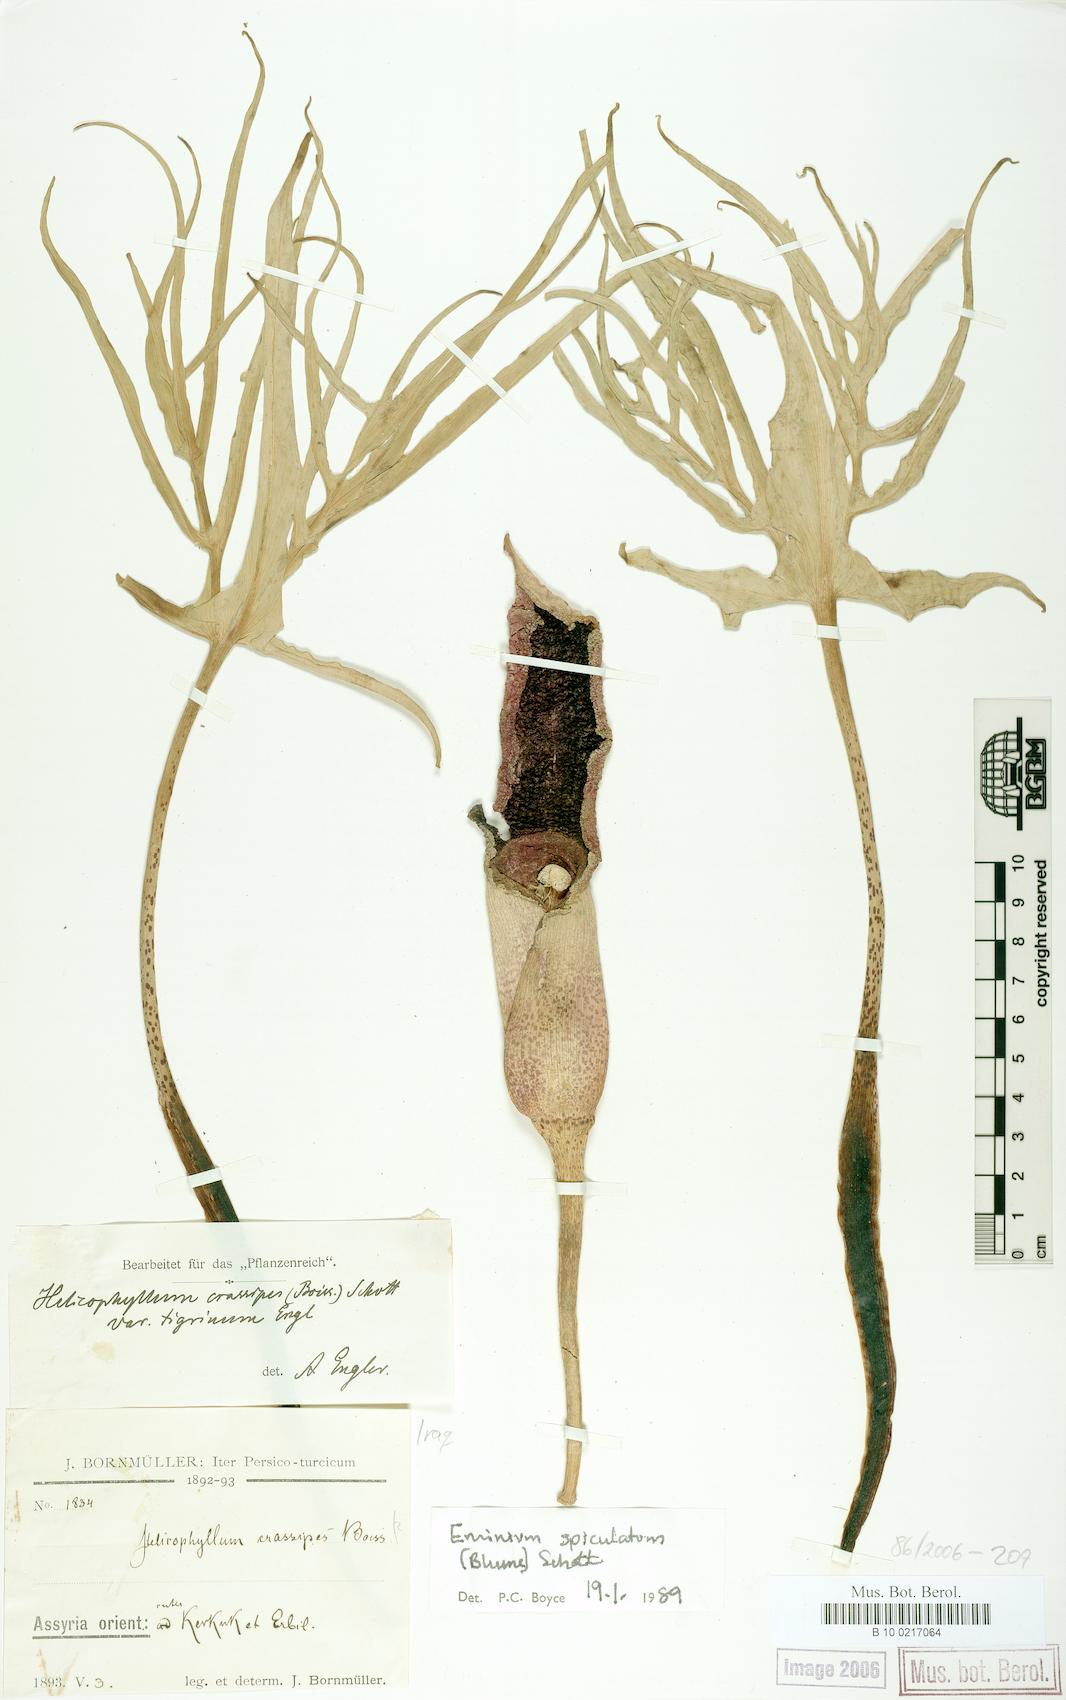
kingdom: Plantae
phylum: Tracheophyta
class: Liliopsida
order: Alismatales
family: Araceae
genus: Eminium
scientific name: Eminium spiculatum
